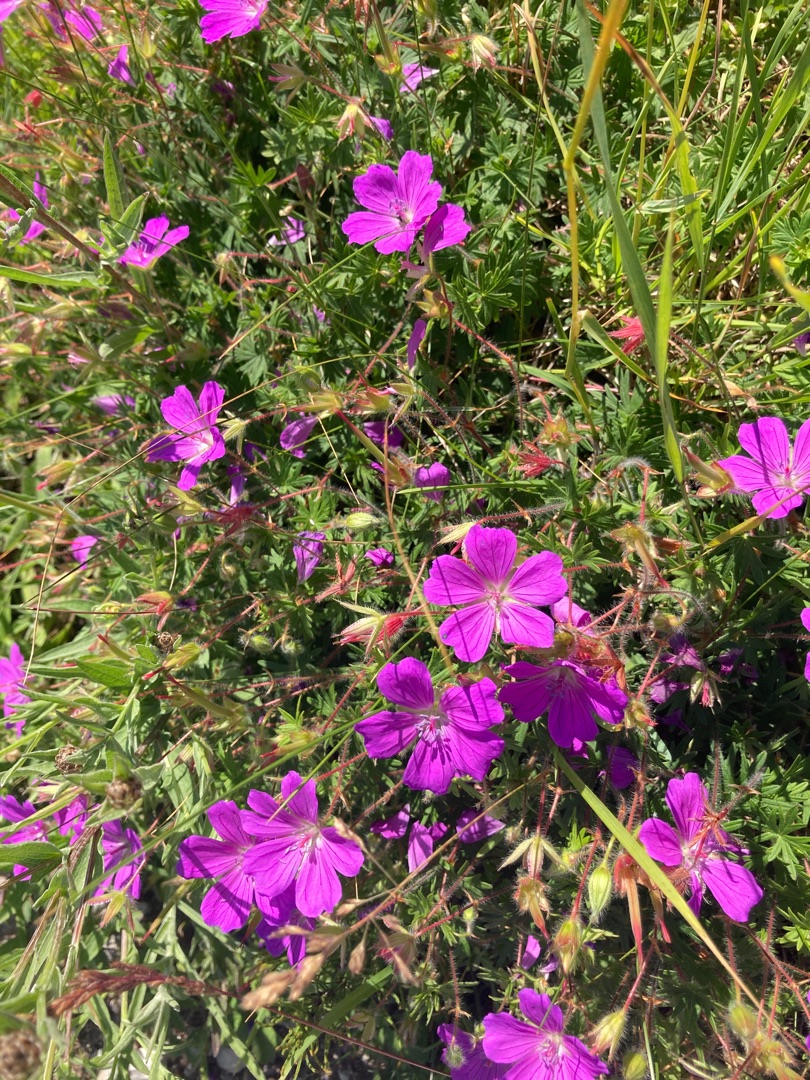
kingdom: Plantae
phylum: Tracheophyta
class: Magnoliopsida
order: Geraniales
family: Geraniaceae
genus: Geranium
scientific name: Geranium sanguineum
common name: Blodrød storkenæb
